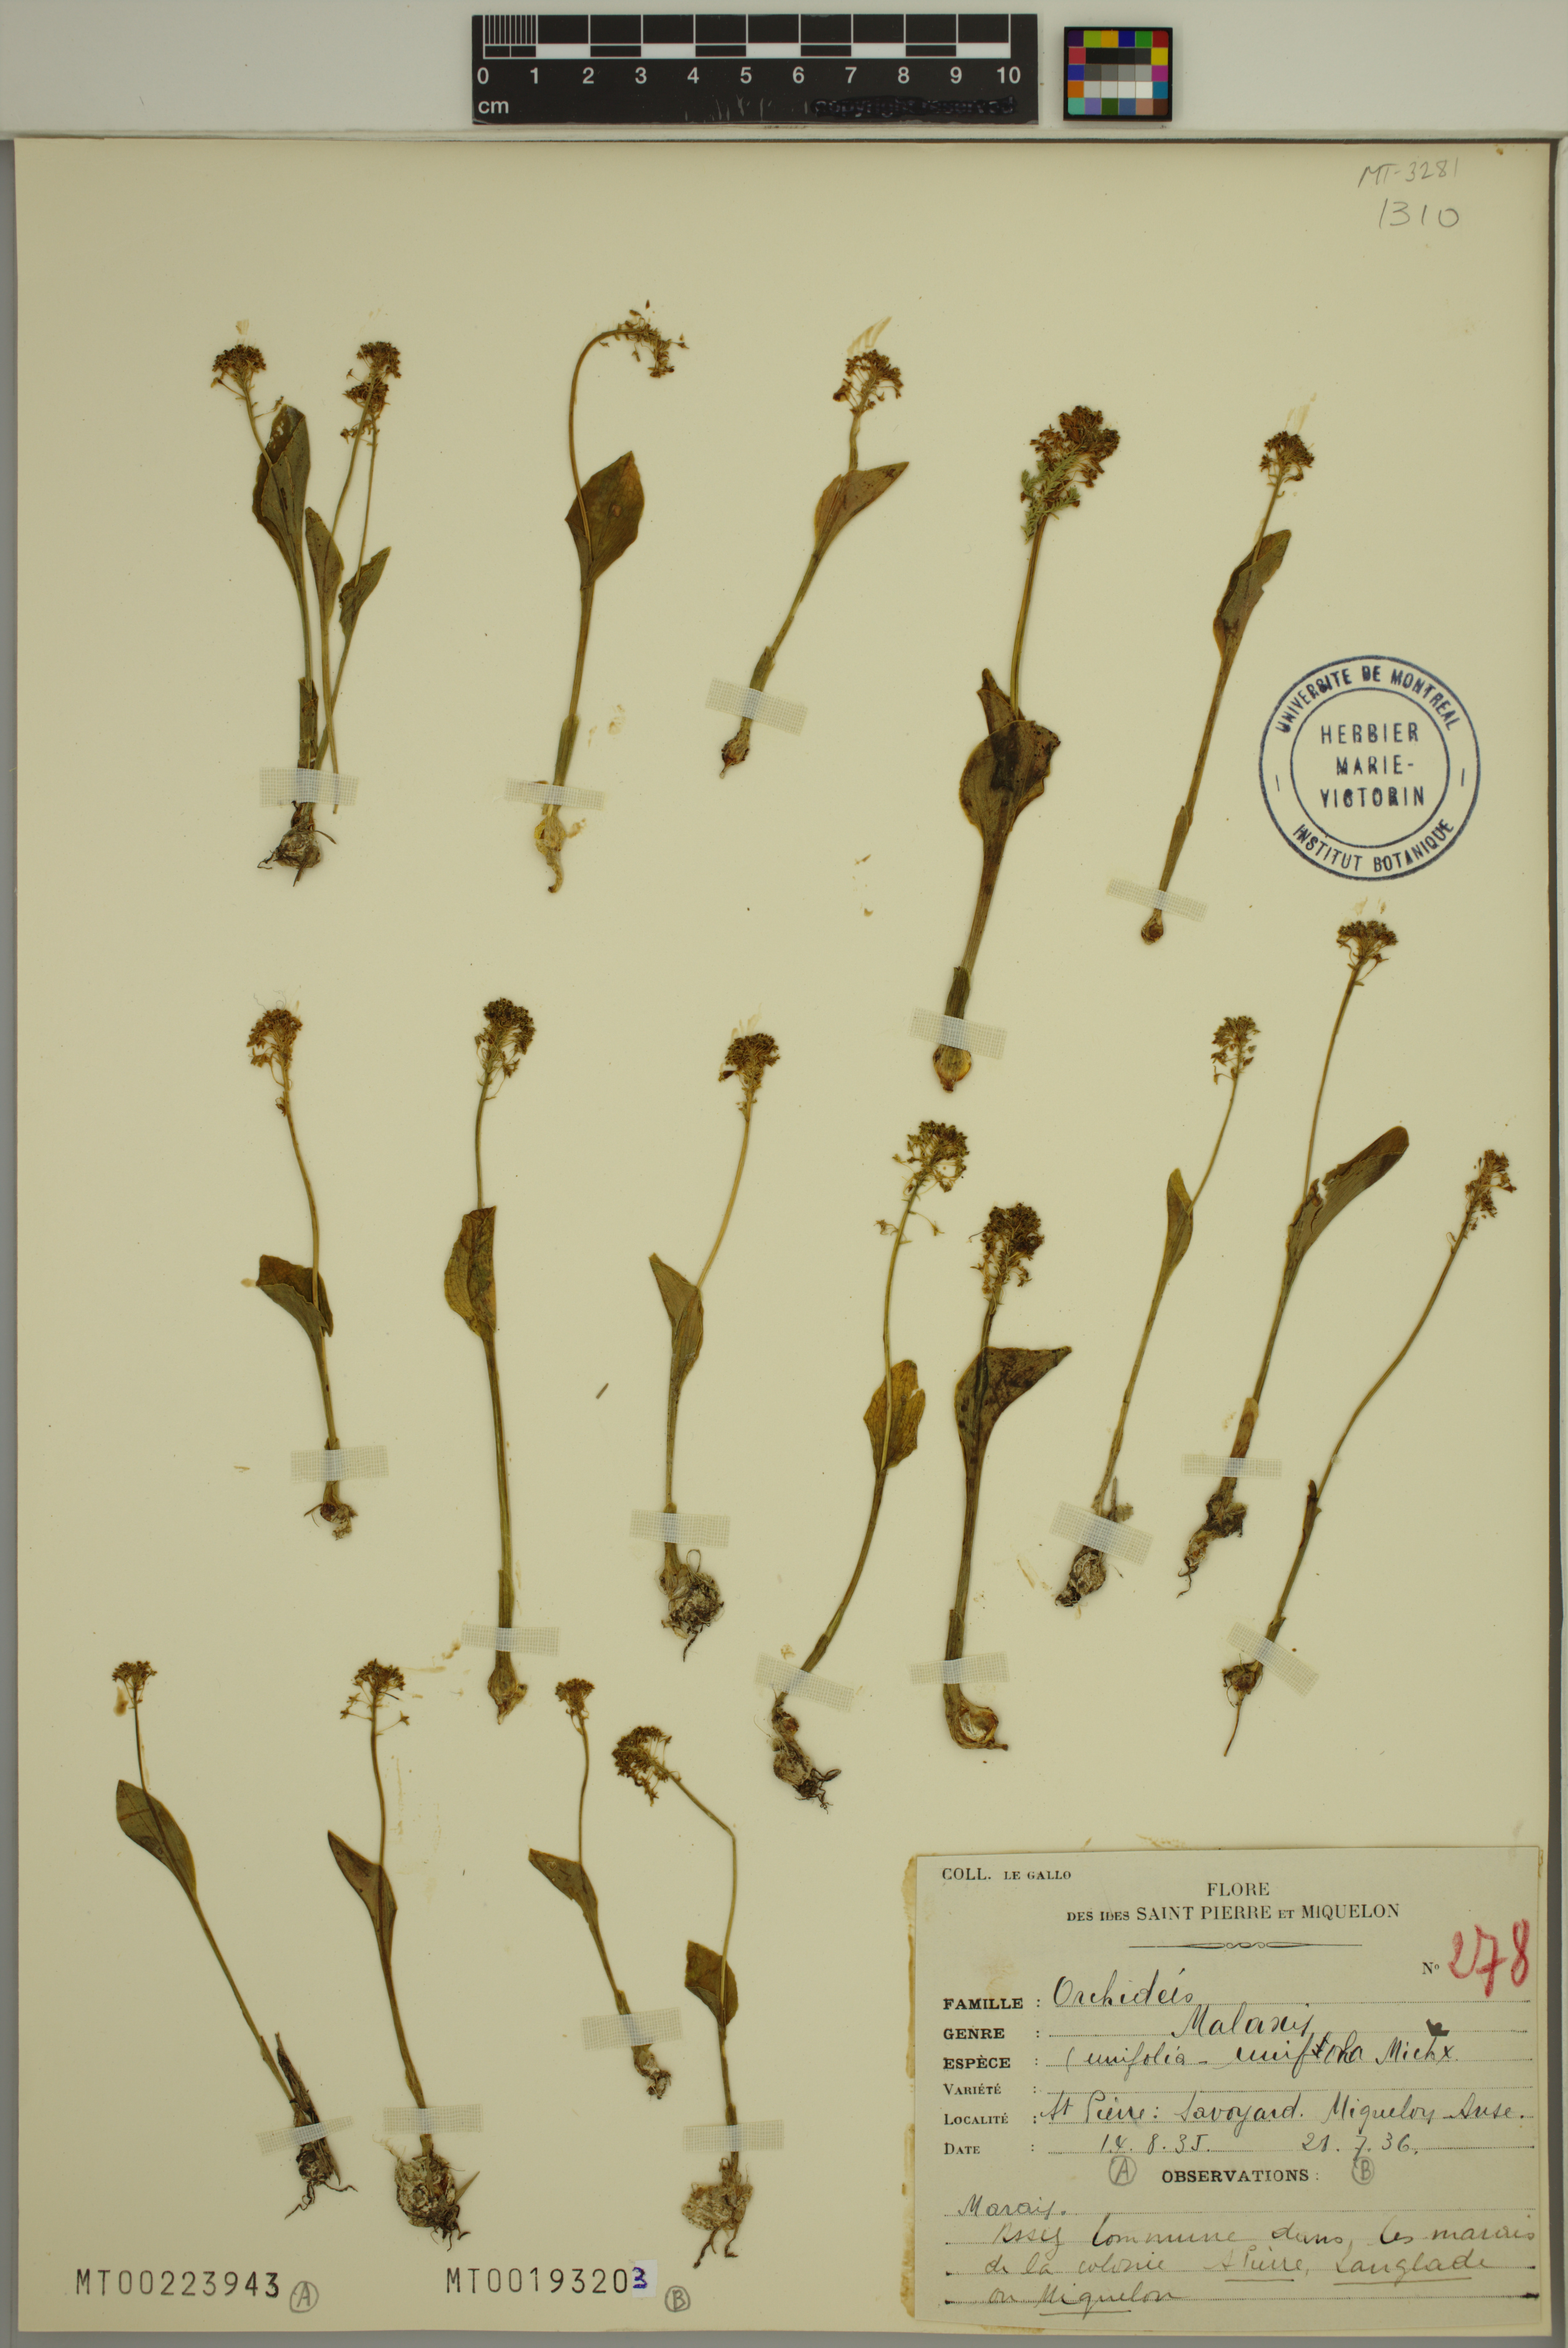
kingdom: Plantae
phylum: Tracheophyta
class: Liliopsida
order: Asparagales
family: Orchidaceae
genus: Malaxis
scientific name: Malaxis unifolia
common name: Green adder's-mouth
